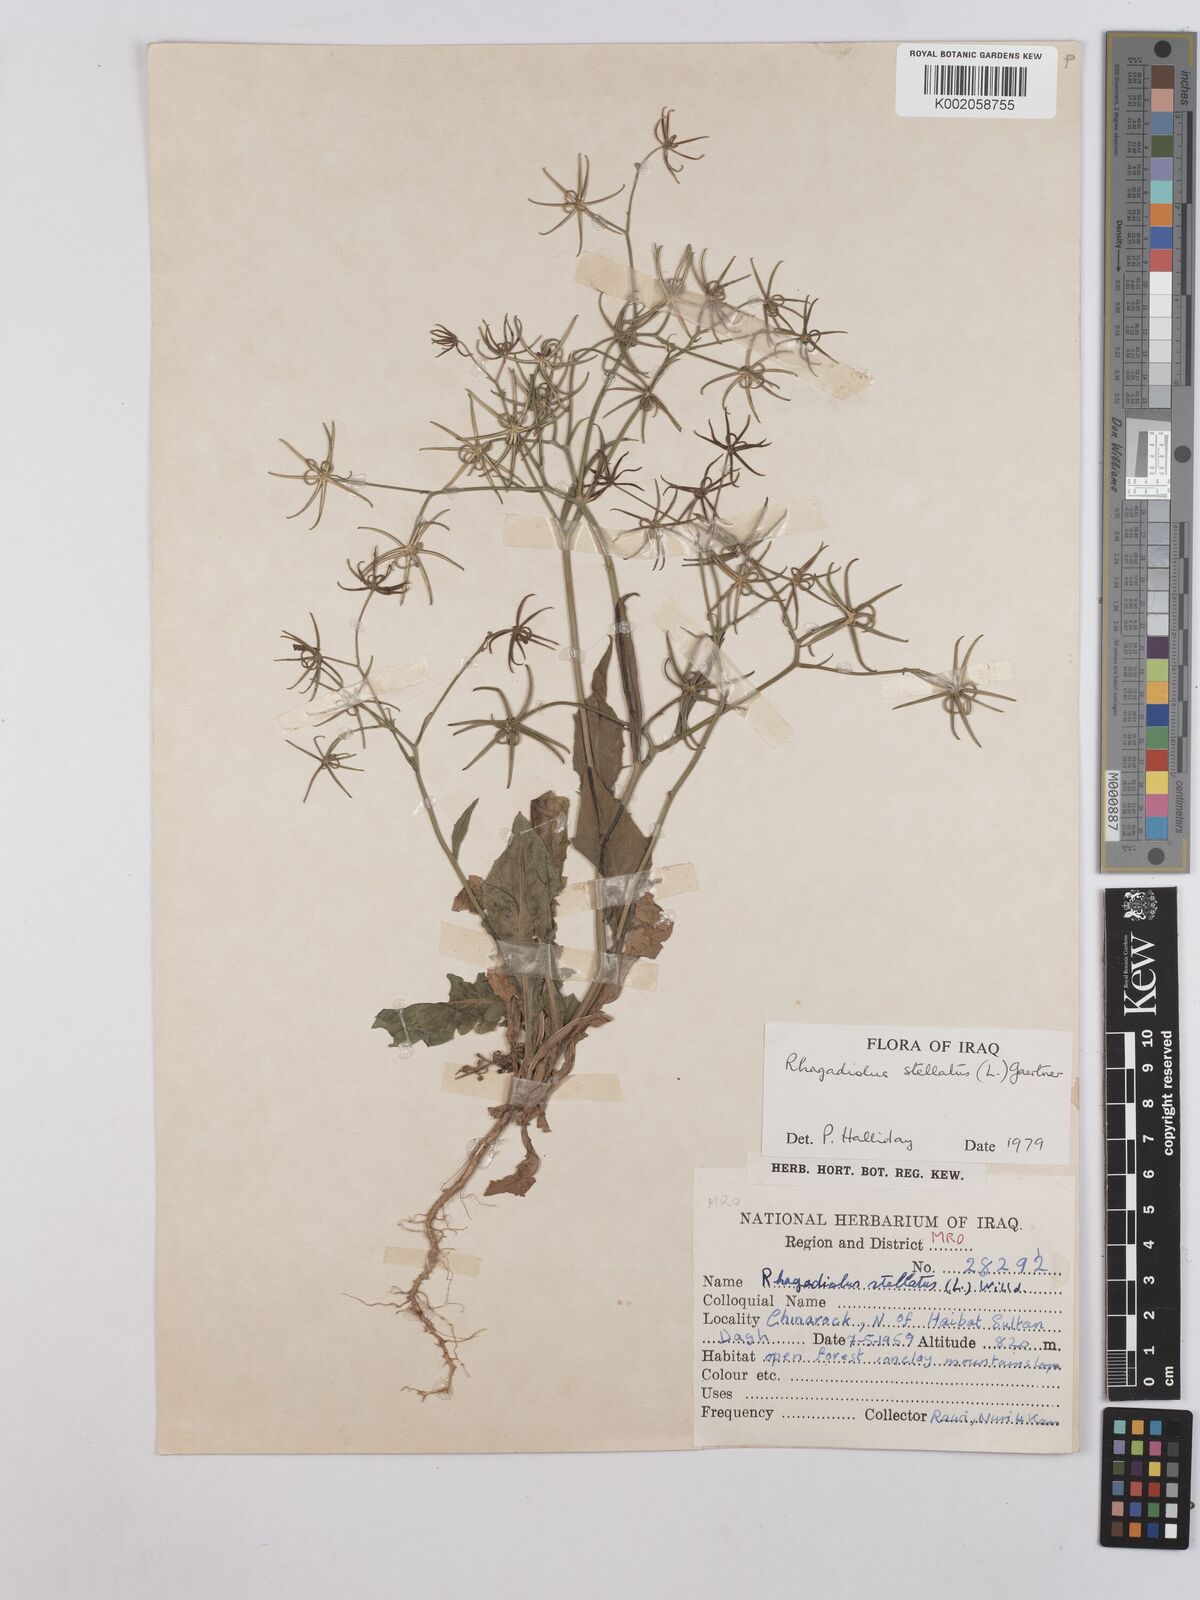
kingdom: Plantae
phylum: Tracheophyta
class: Magnoliopsida
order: Asterales
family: Asteraceae
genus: Rhagadiolus
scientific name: Rhagadiolus stellatus
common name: Star hawkbit
